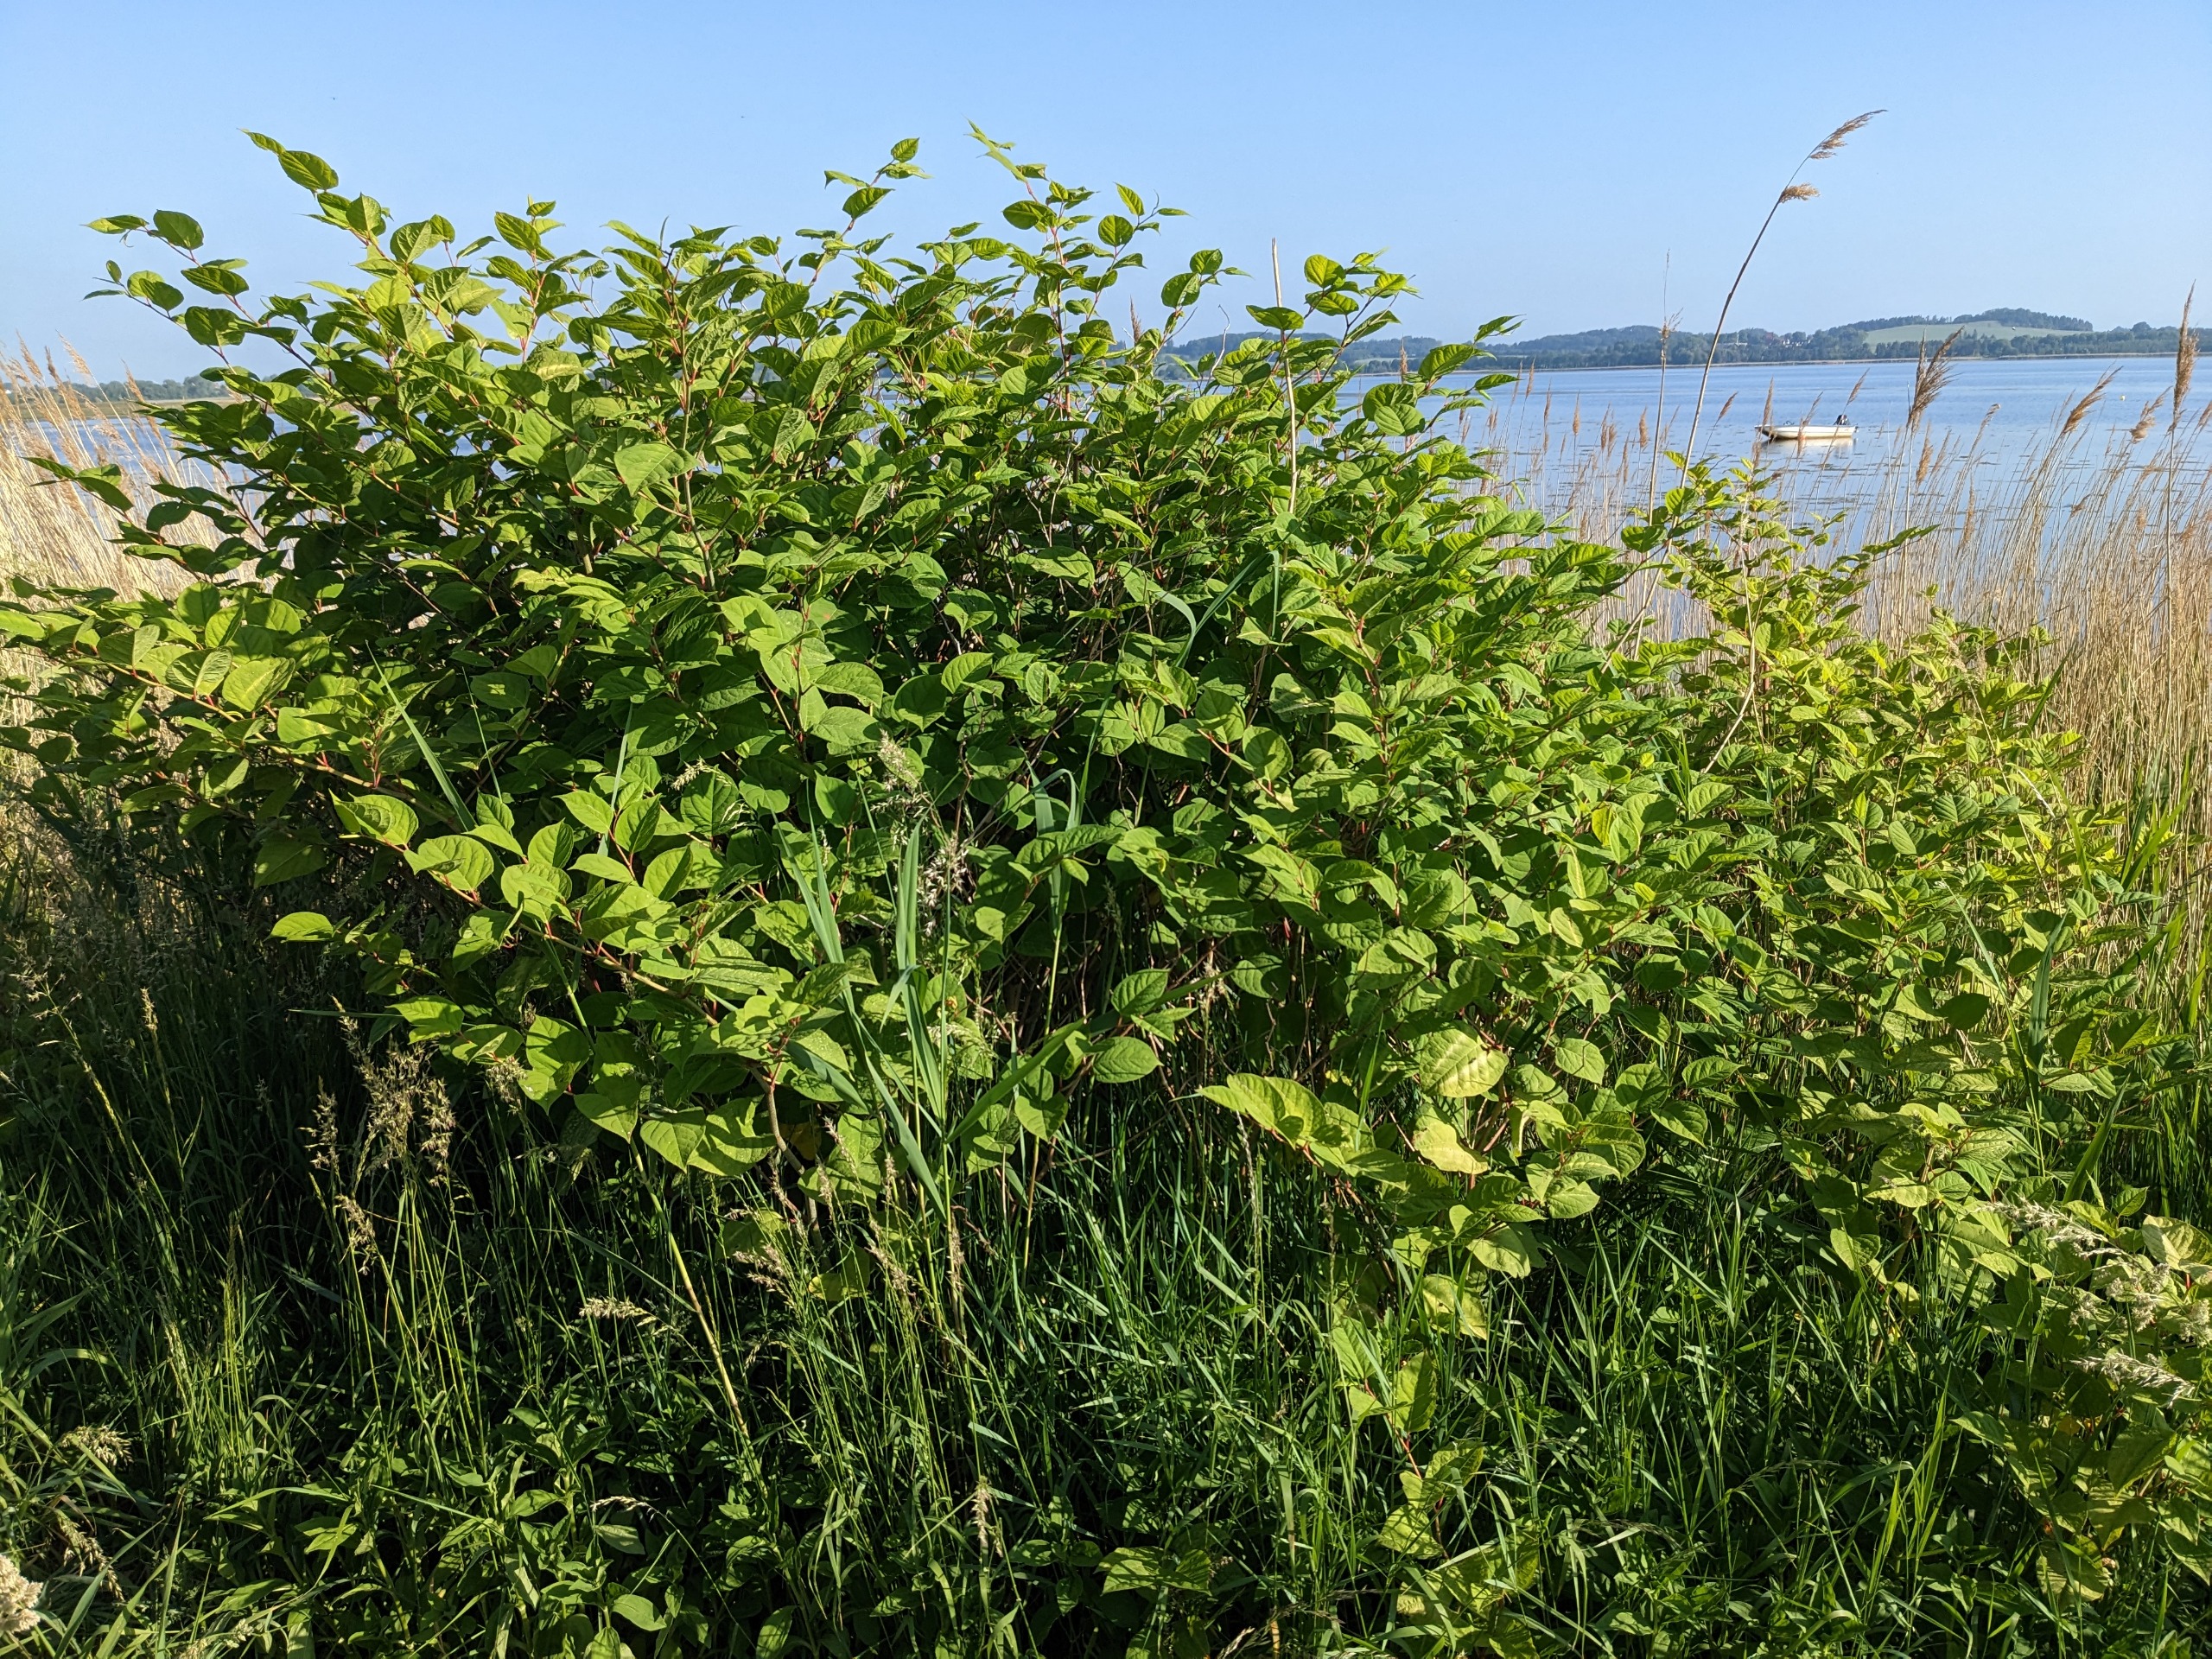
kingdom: Plantae
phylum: Tracheophyta
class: Magnoliopsida
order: Caryophyllales
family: Polygonaceae
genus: Reynoutria
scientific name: Reynoutria japonica
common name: Japan-pileurt
